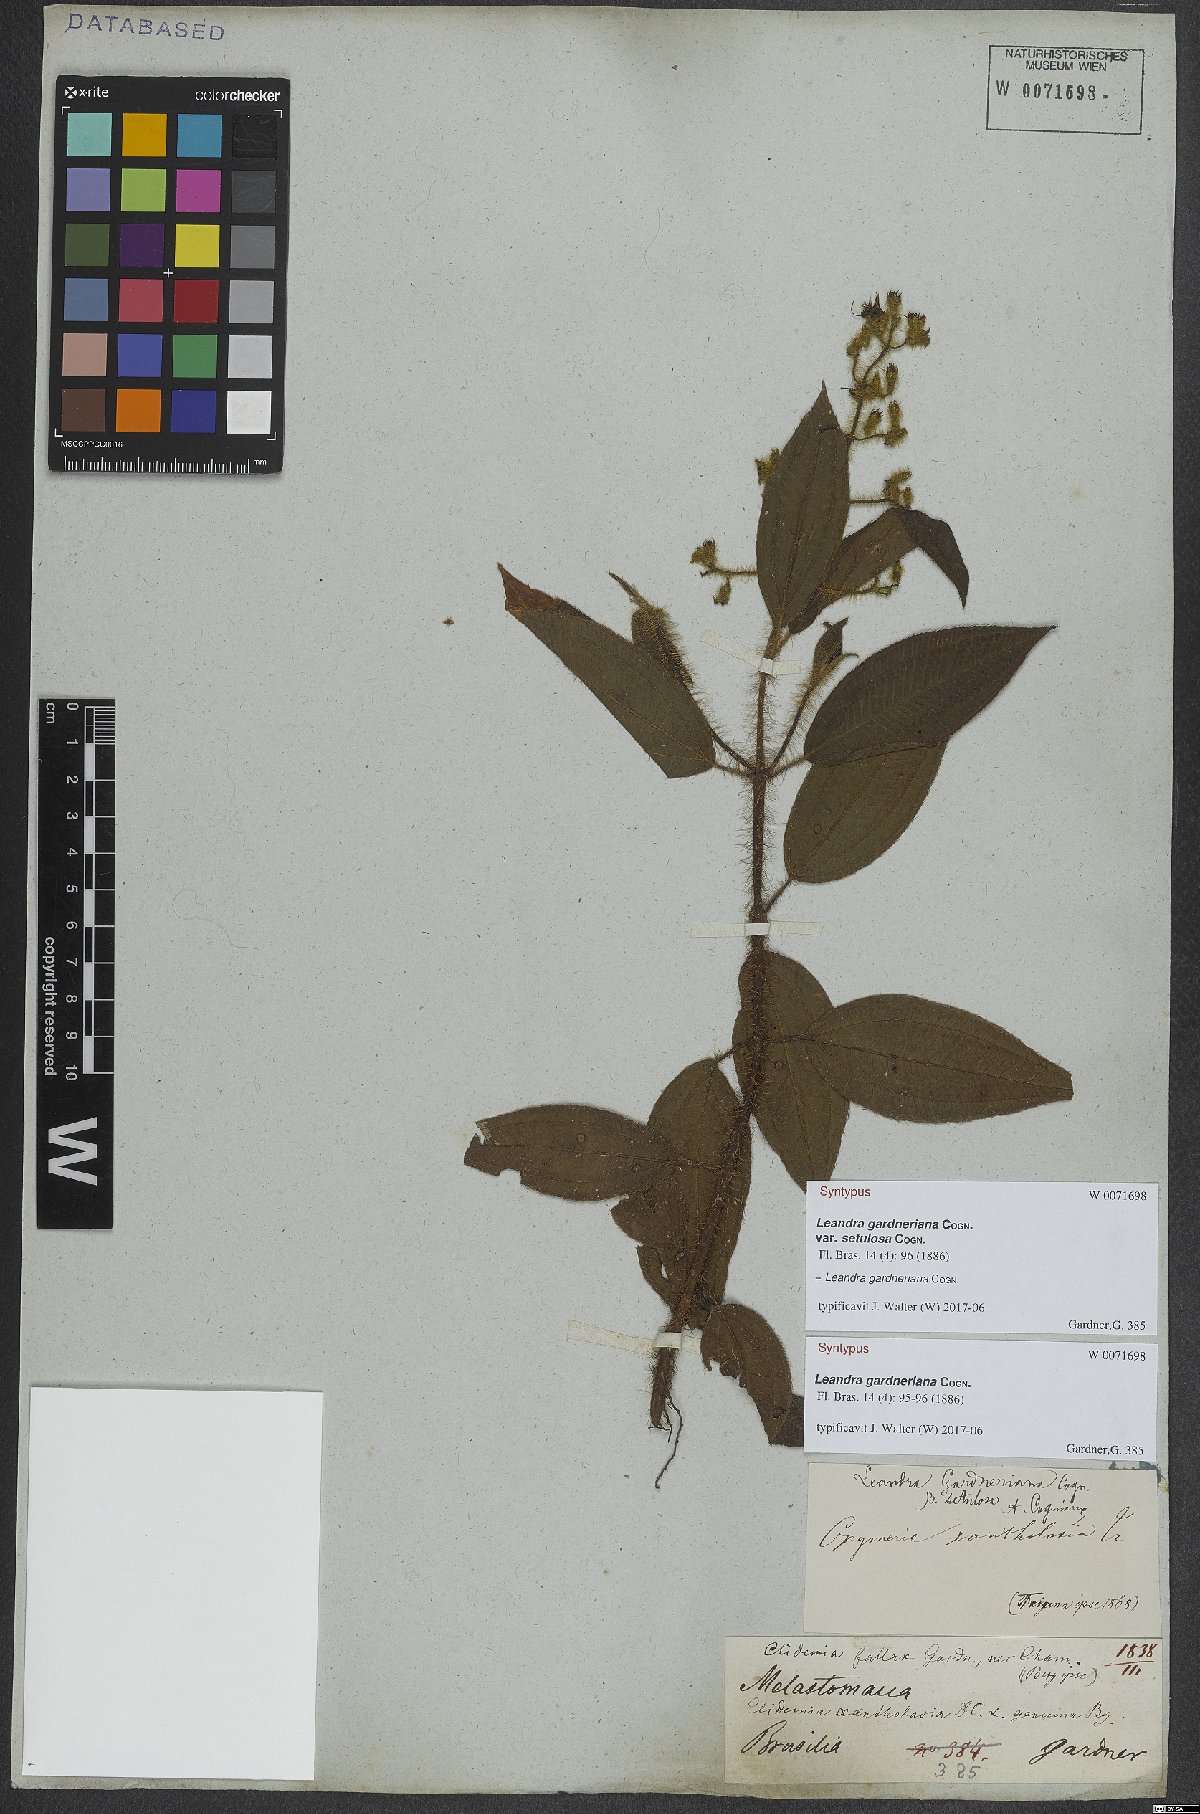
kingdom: Plantae
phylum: Tracheophyta
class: Magnoliopsida
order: Myrtales
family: Melastomataceae
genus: Miconia
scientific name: Miconia xantholasia
